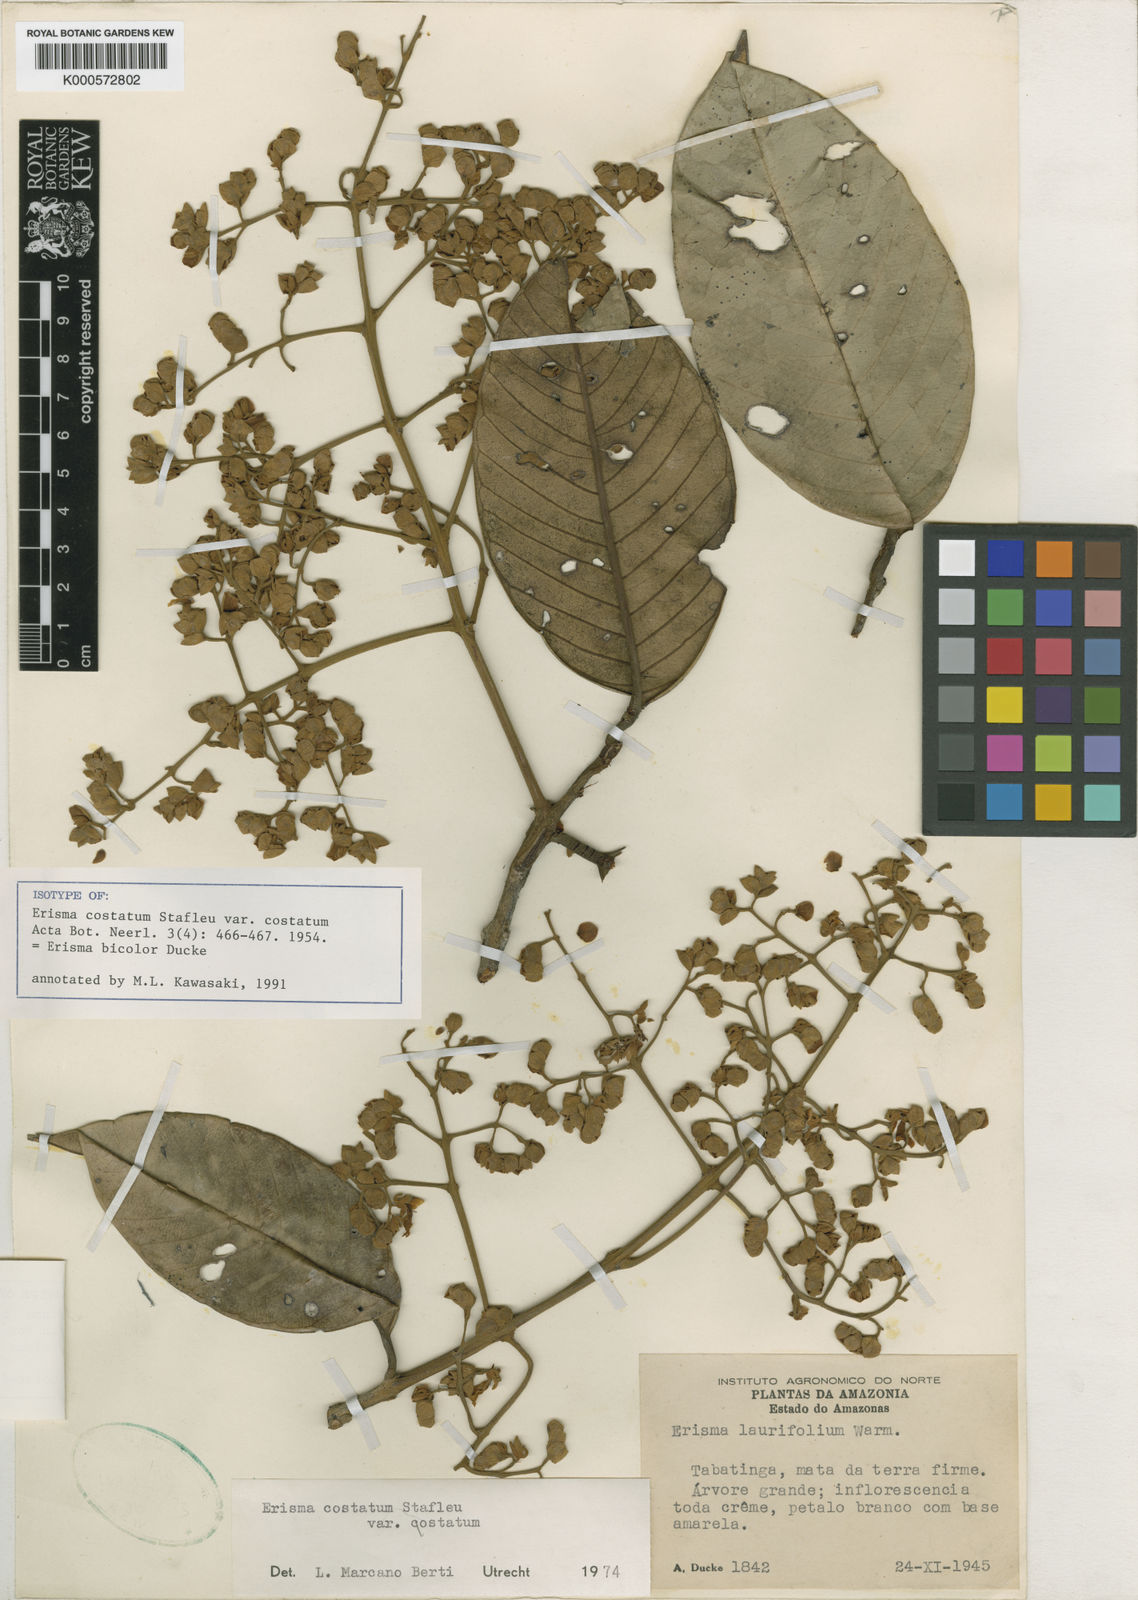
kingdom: Plantae
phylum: Tracheophyta
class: Magnoliopsida
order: Myrtales
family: Vochysiaceae
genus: Erisma
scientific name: Erisma bicolor
